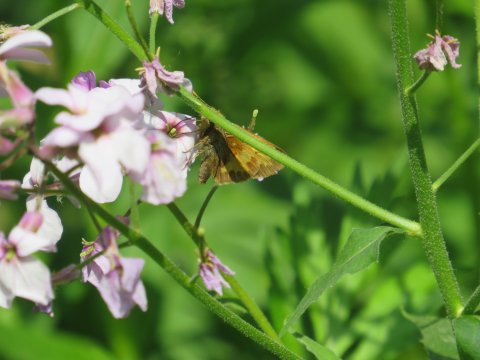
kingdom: Animalia
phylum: Arthropoda
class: Insecta
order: Lepidoptera
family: Hesperiidae
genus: Lon
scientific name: Lon hobomok
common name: Hobomok Skipper
